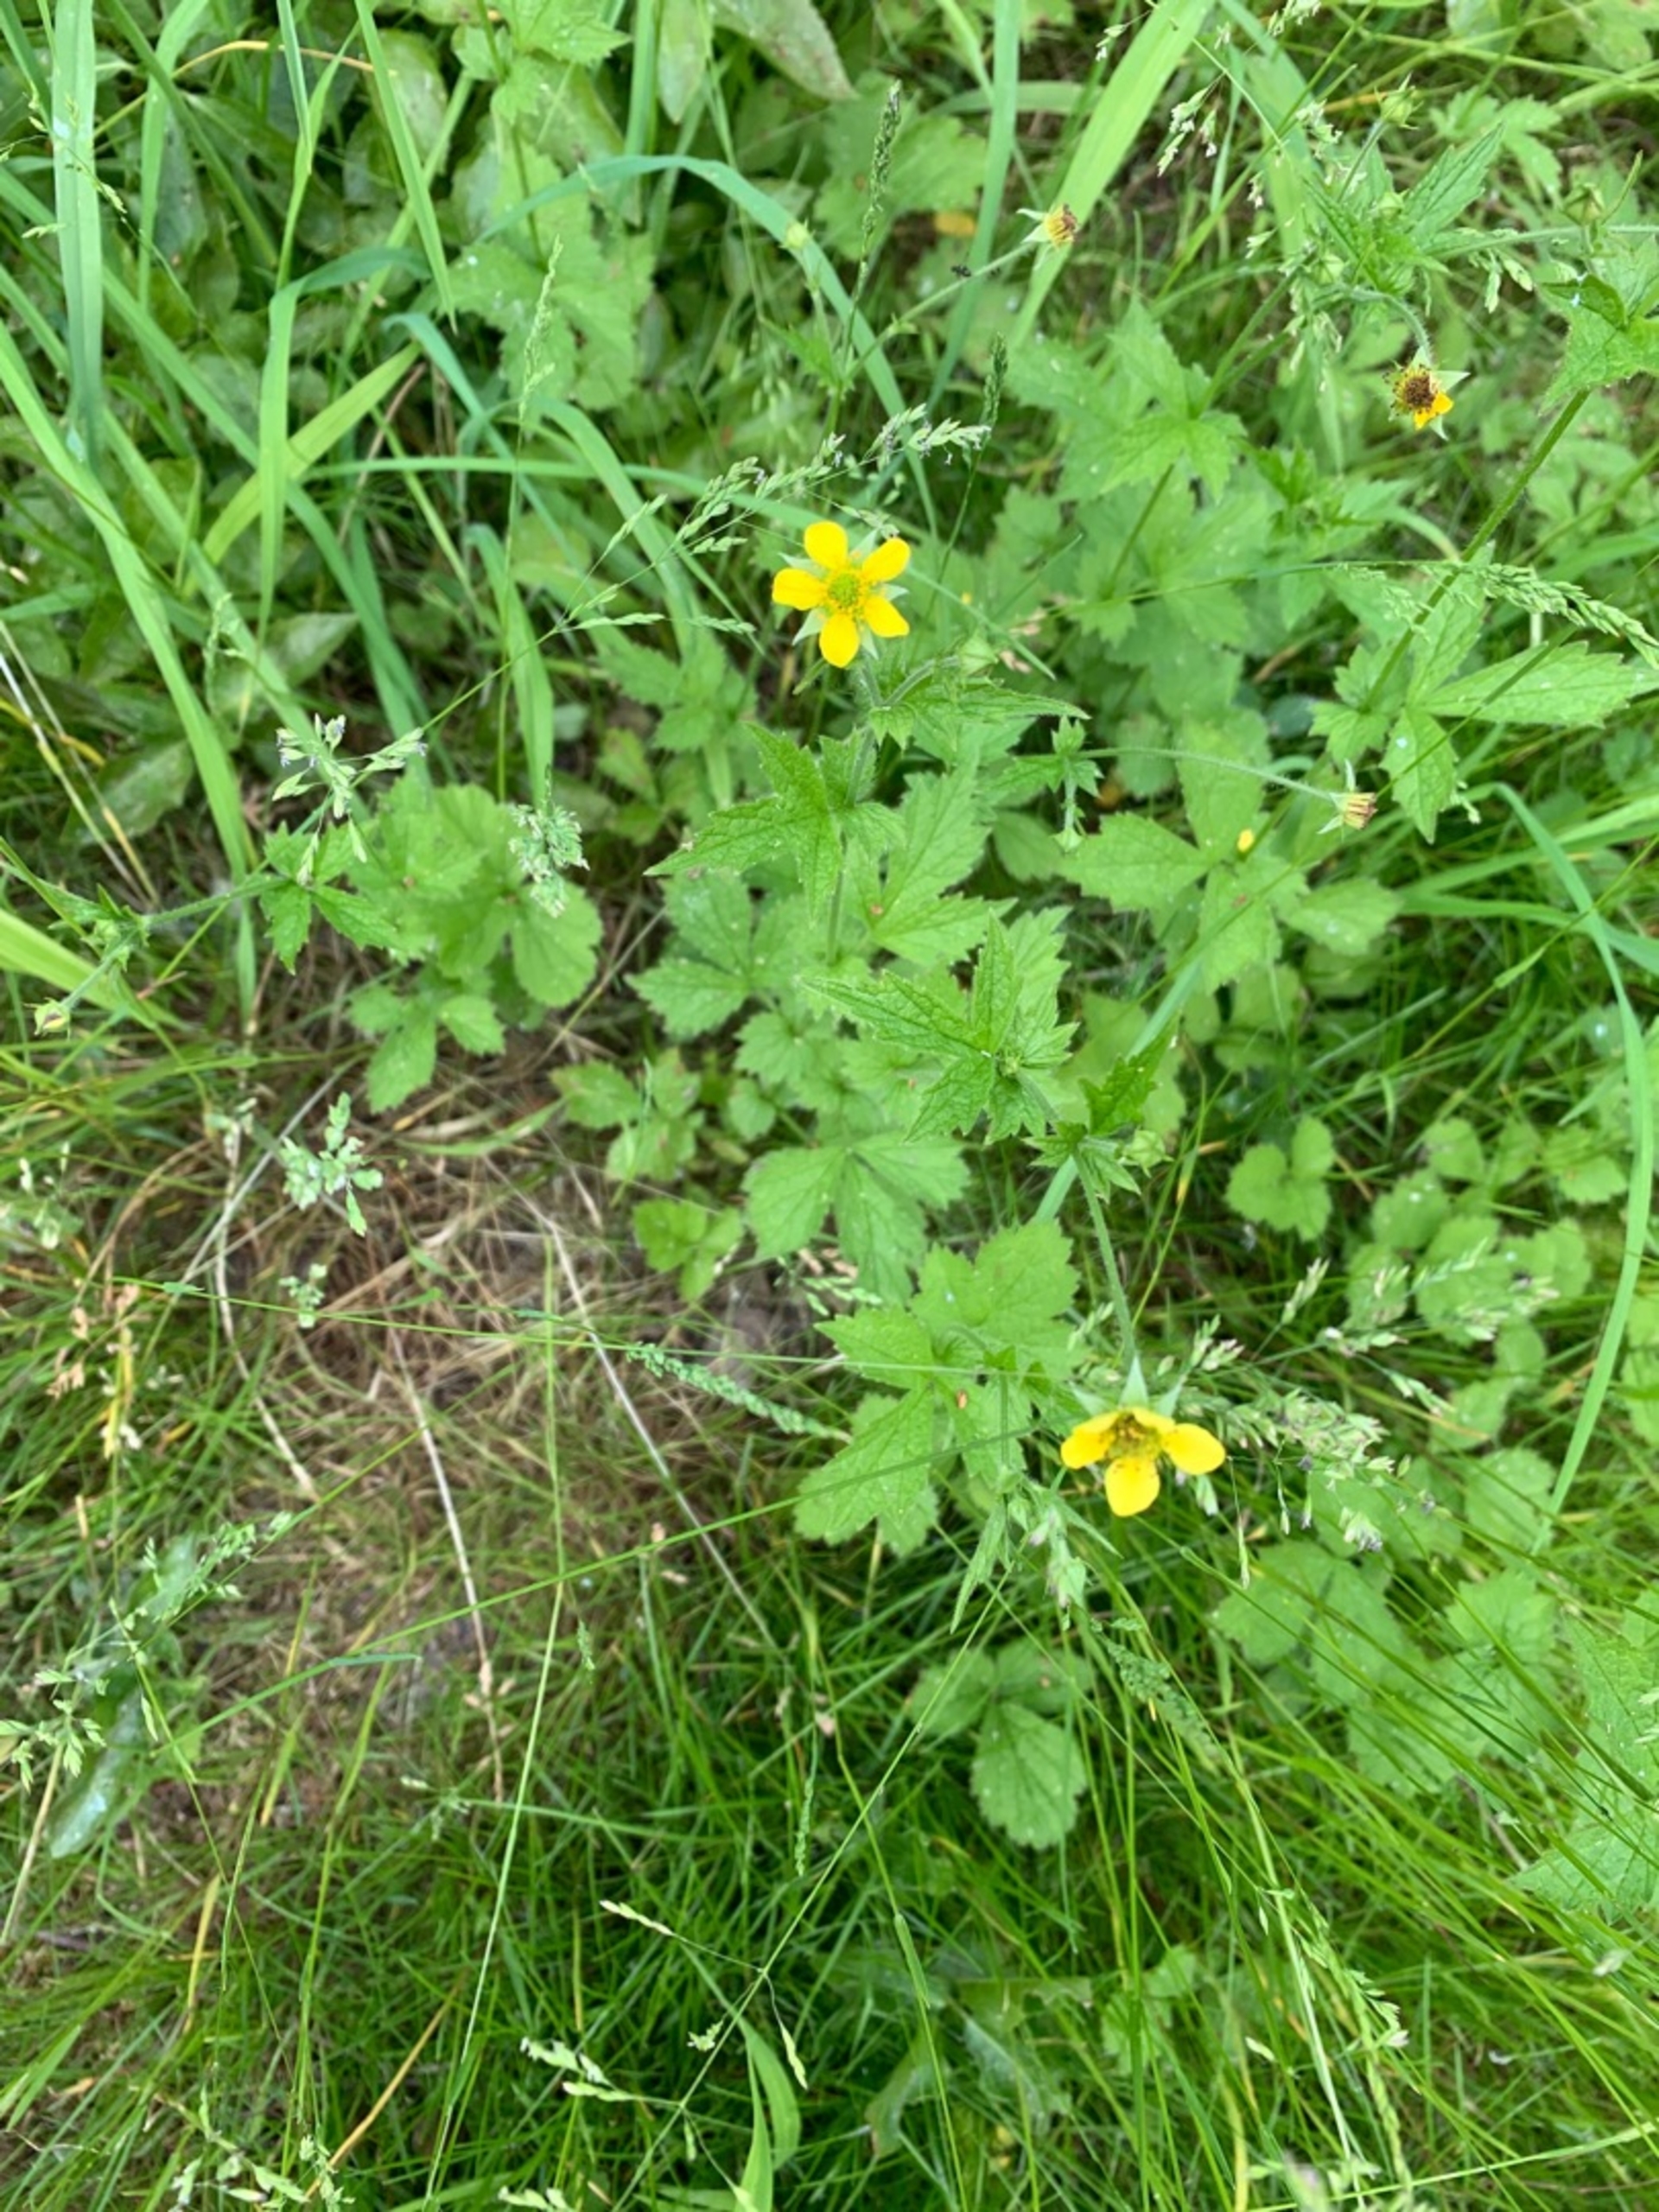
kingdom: Plantae
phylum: Tracheophyta
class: Magnoliopsida
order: Rosales
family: Rosaceae
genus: Geum
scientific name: Geum urbanum
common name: Feber-nellikerod
